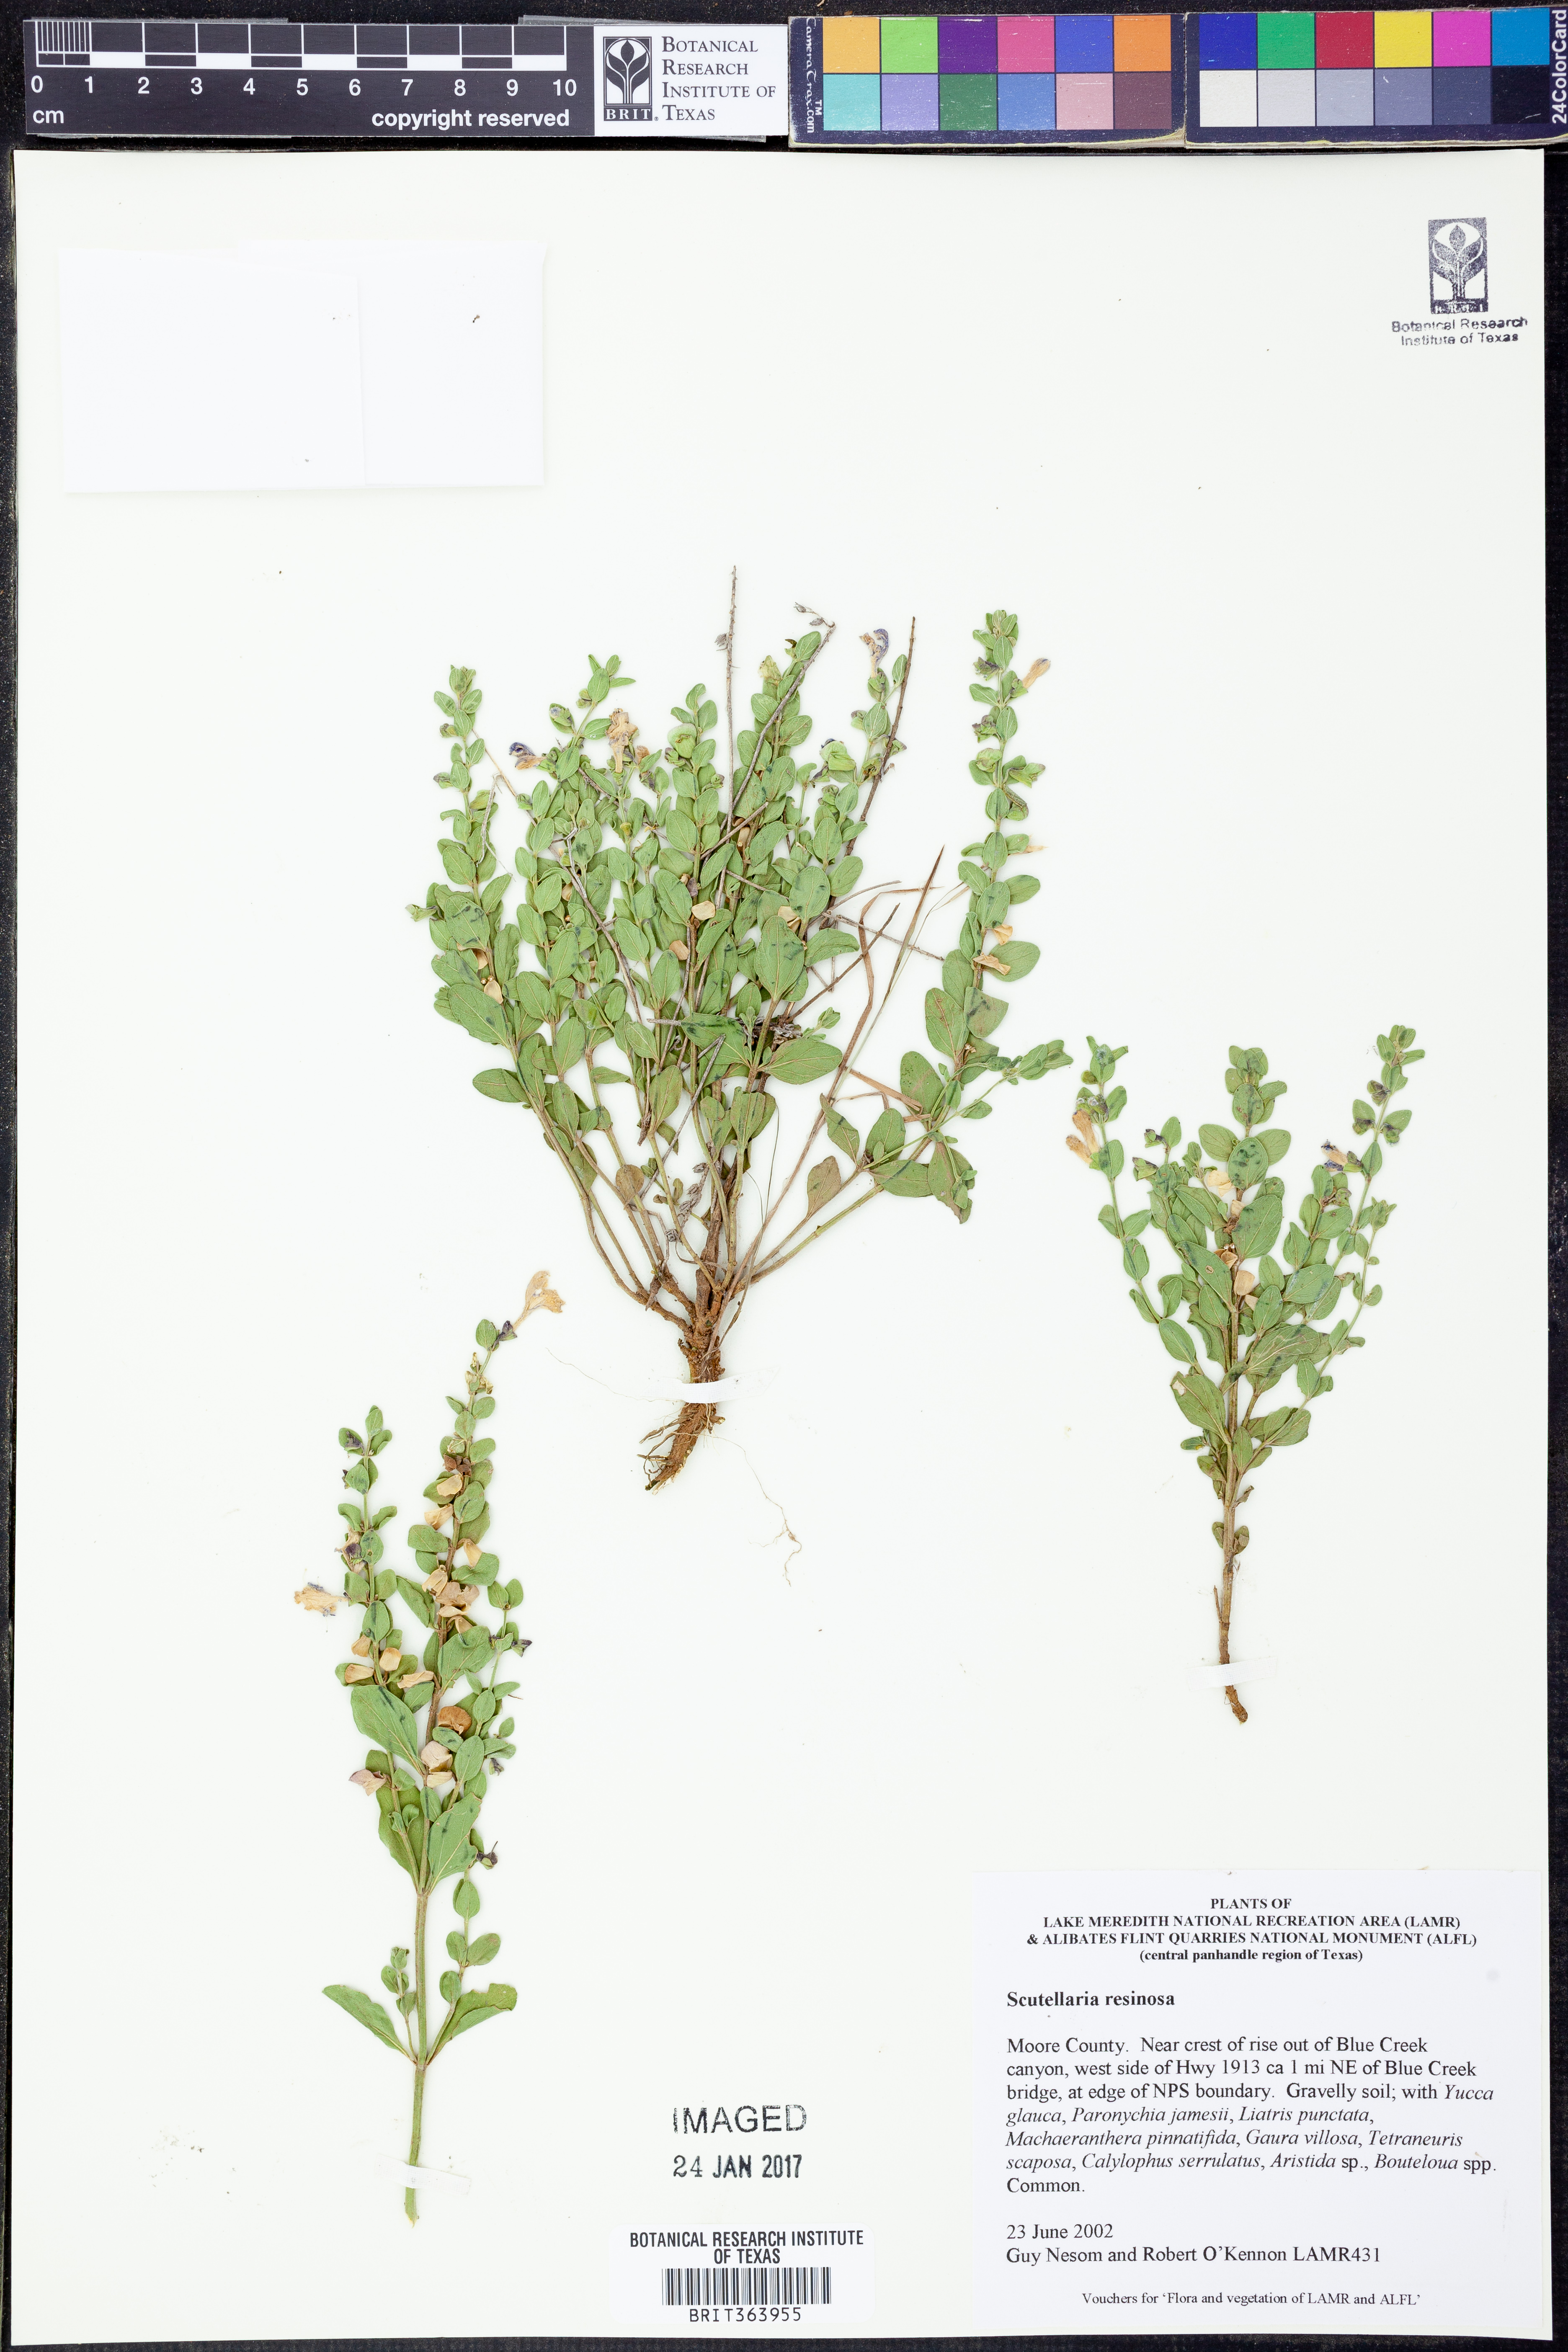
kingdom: Plantae
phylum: Tracheophyta
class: Magnoliopsida
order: Lamiales
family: Lamiaceae
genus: Scutellaria
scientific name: Scutellaria resinosa
